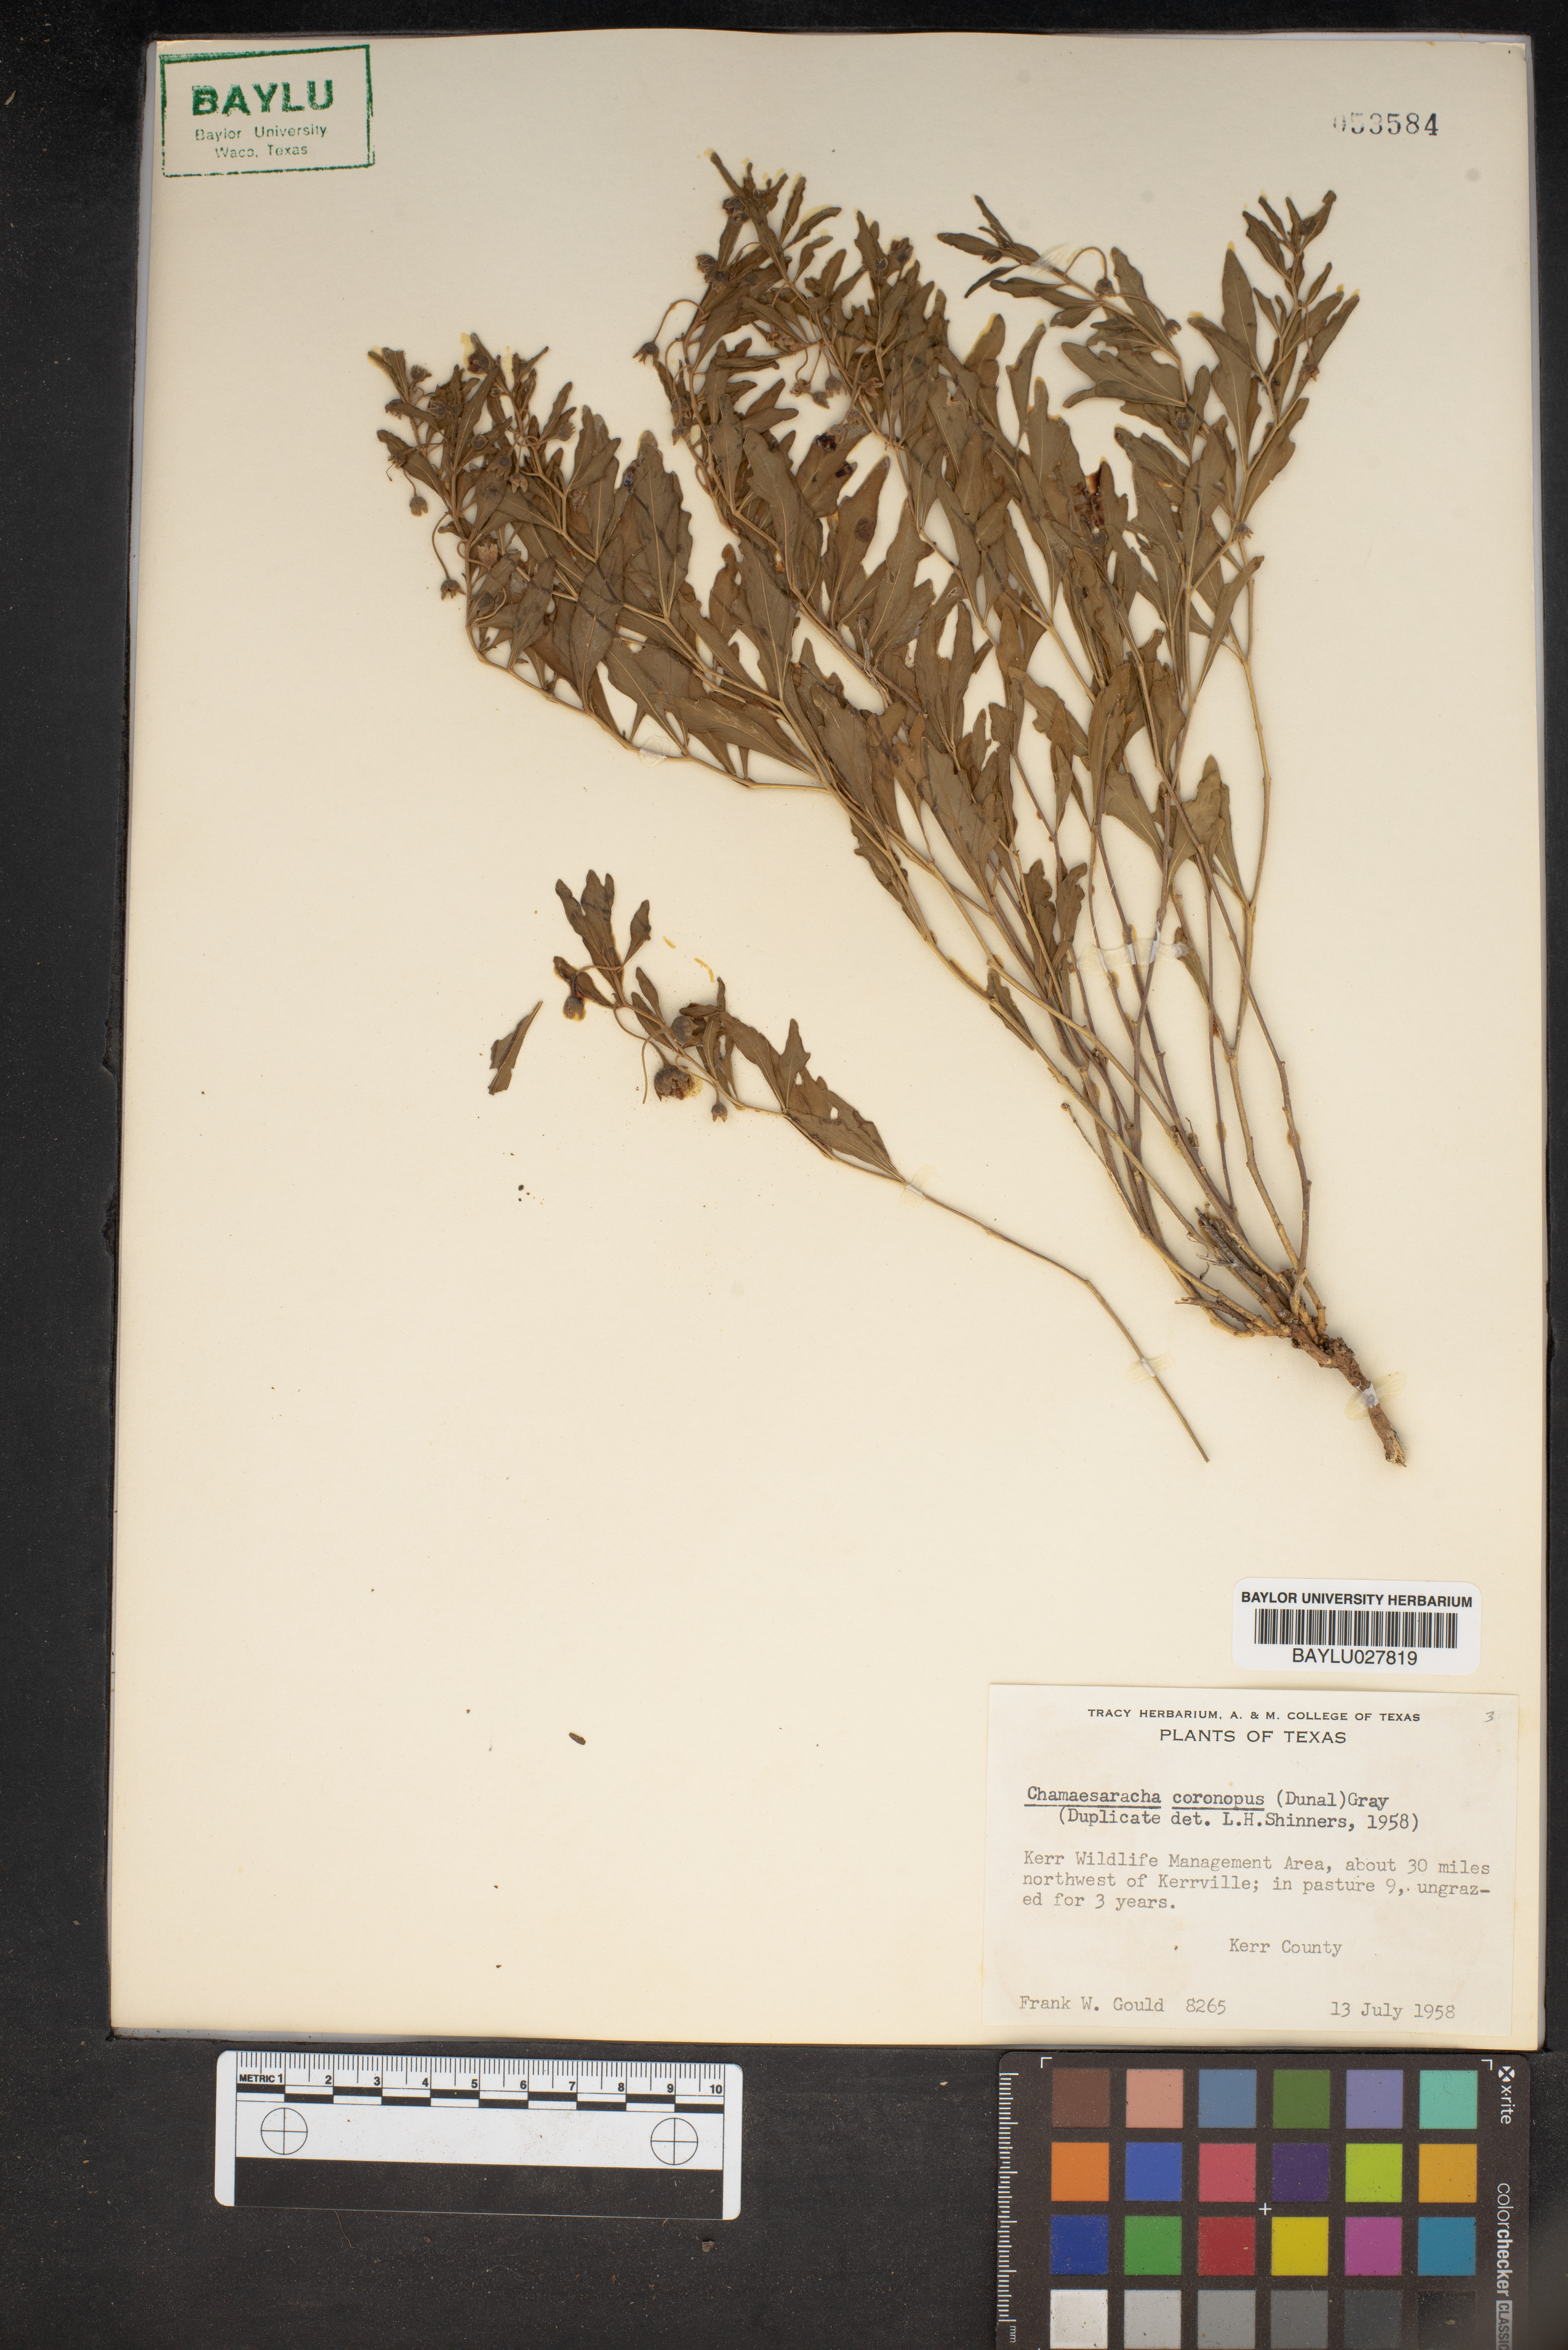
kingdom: Plantae
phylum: Tracheophyta
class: Magnoliopsida
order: Solanales
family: Solanaceae
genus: Chamaesaracha
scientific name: Chamaesaracha coronopus
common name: Smooth chamaesaracha
